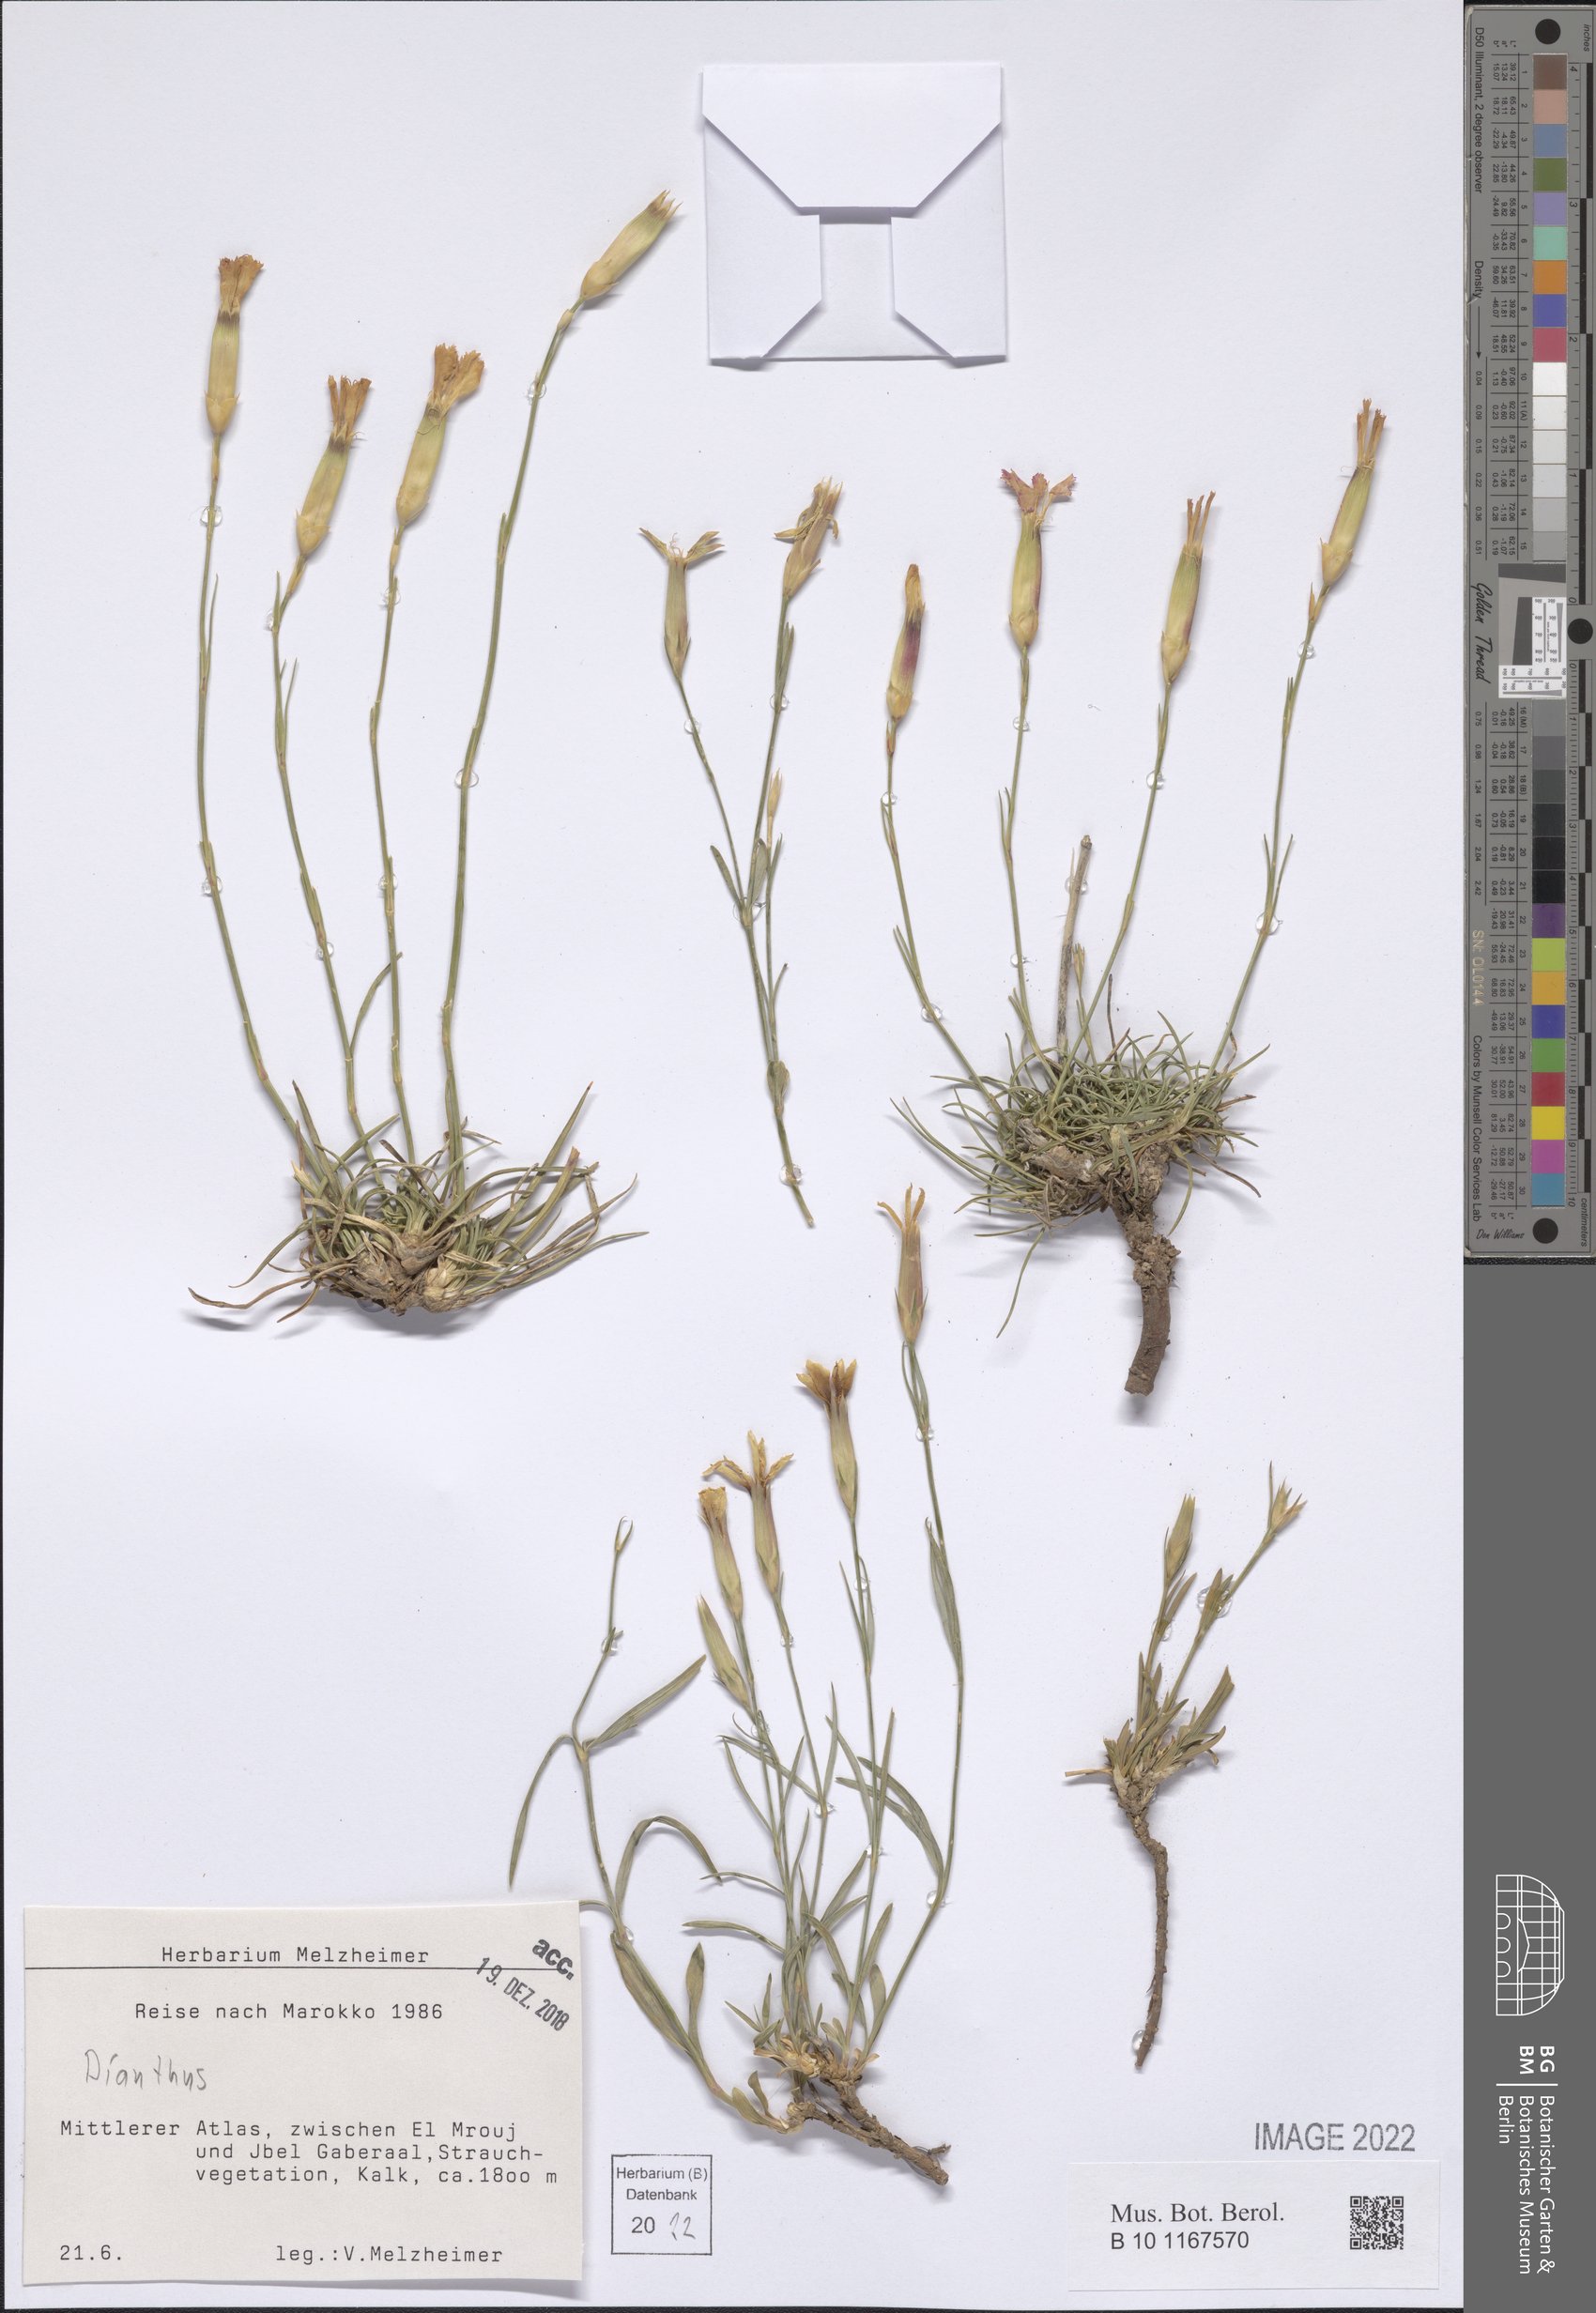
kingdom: Plantae
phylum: Tracheophyta
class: Magnoliopsida
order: Caryophyllales
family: Caryophyllaceae
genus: Dianthus
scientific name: Dianthus
